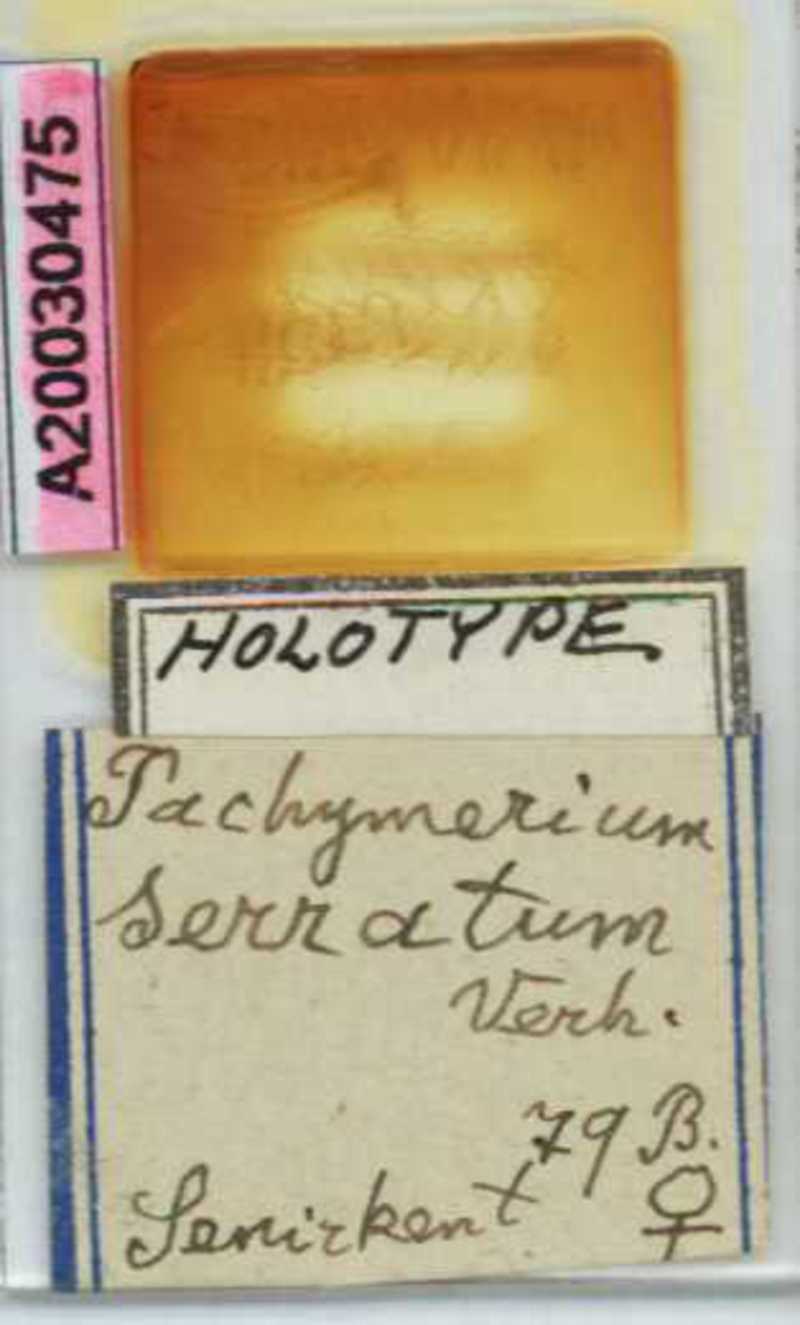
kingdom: Animalia
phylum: Arthropoda
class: Chilopoda
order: Geophilomorpha
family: Geophilidae
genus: Pachymerium
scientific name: Pachymerium ferrugineum
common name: Centipede
